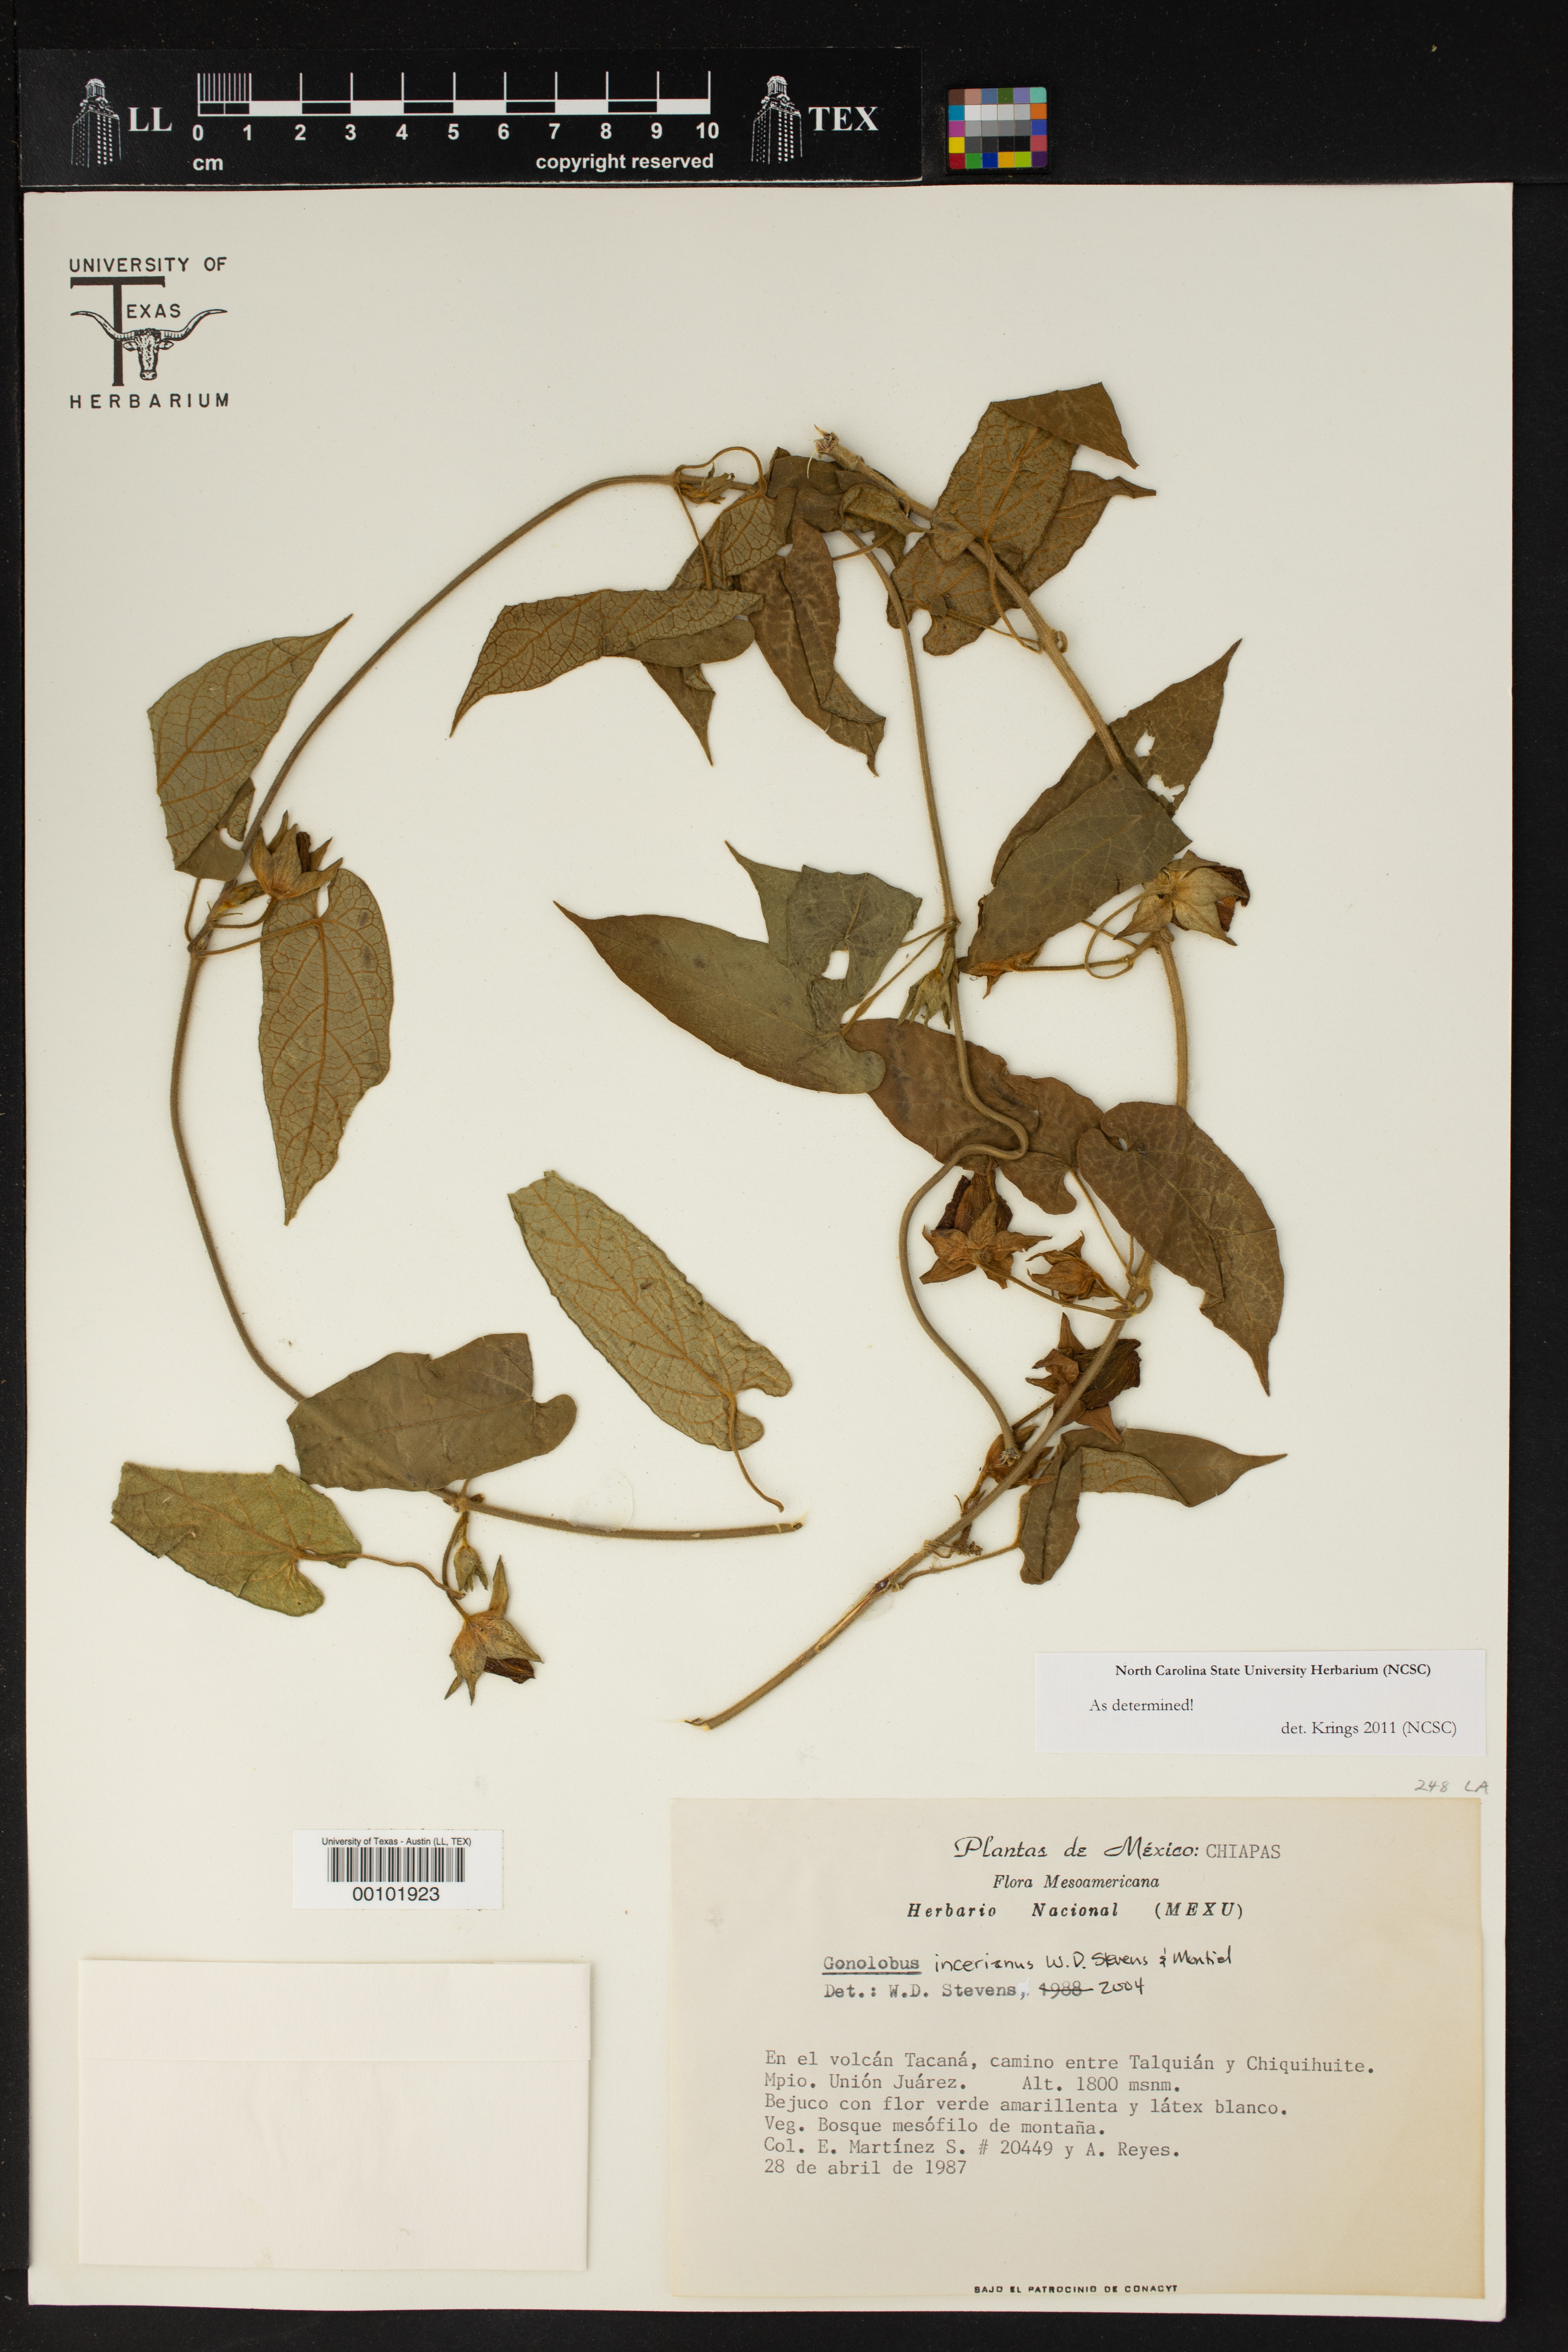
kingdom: Plantae
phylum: Tracheophyta
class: Magnoliopsida
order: Gentianales
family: Apocynaceae
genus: Gonolobus
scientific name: Gonolobus
